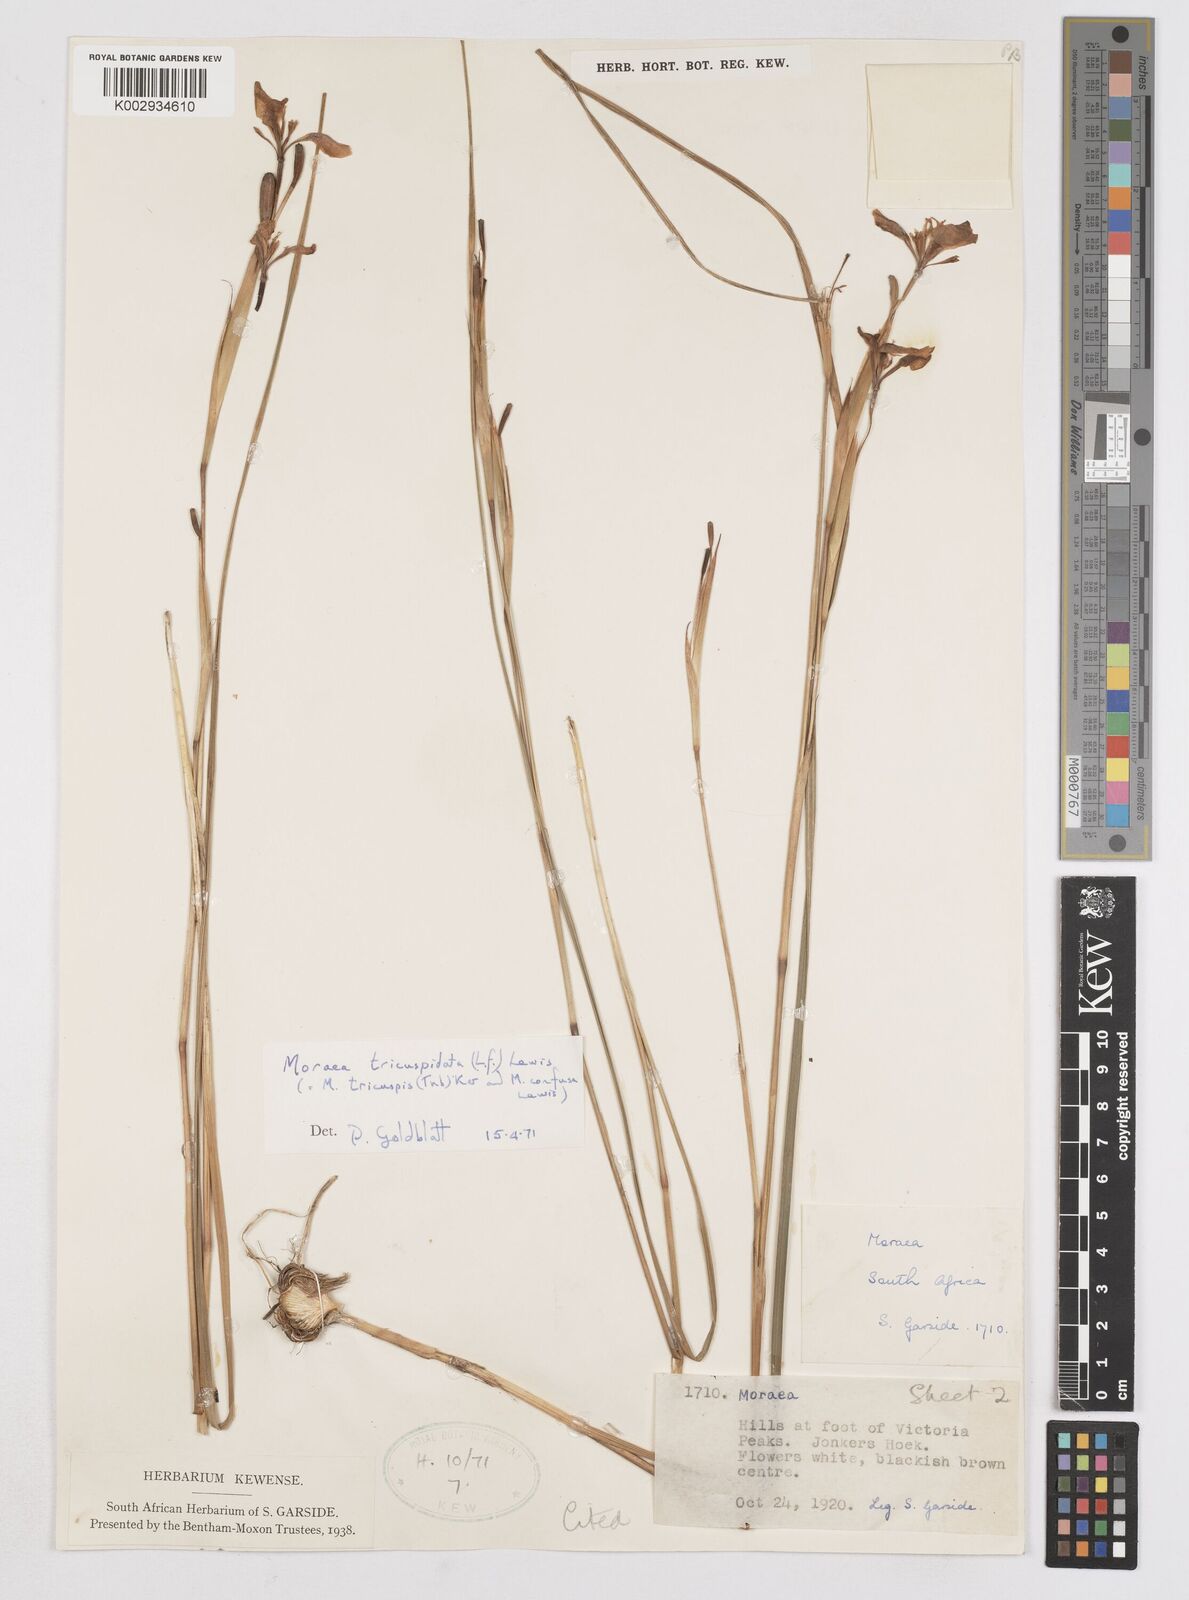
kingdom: Plantae
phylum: Tracheophyta
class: Liliopsida
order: Asparagales
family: Iridaceae
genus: Moraea
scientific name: Moraea tricuspidata
